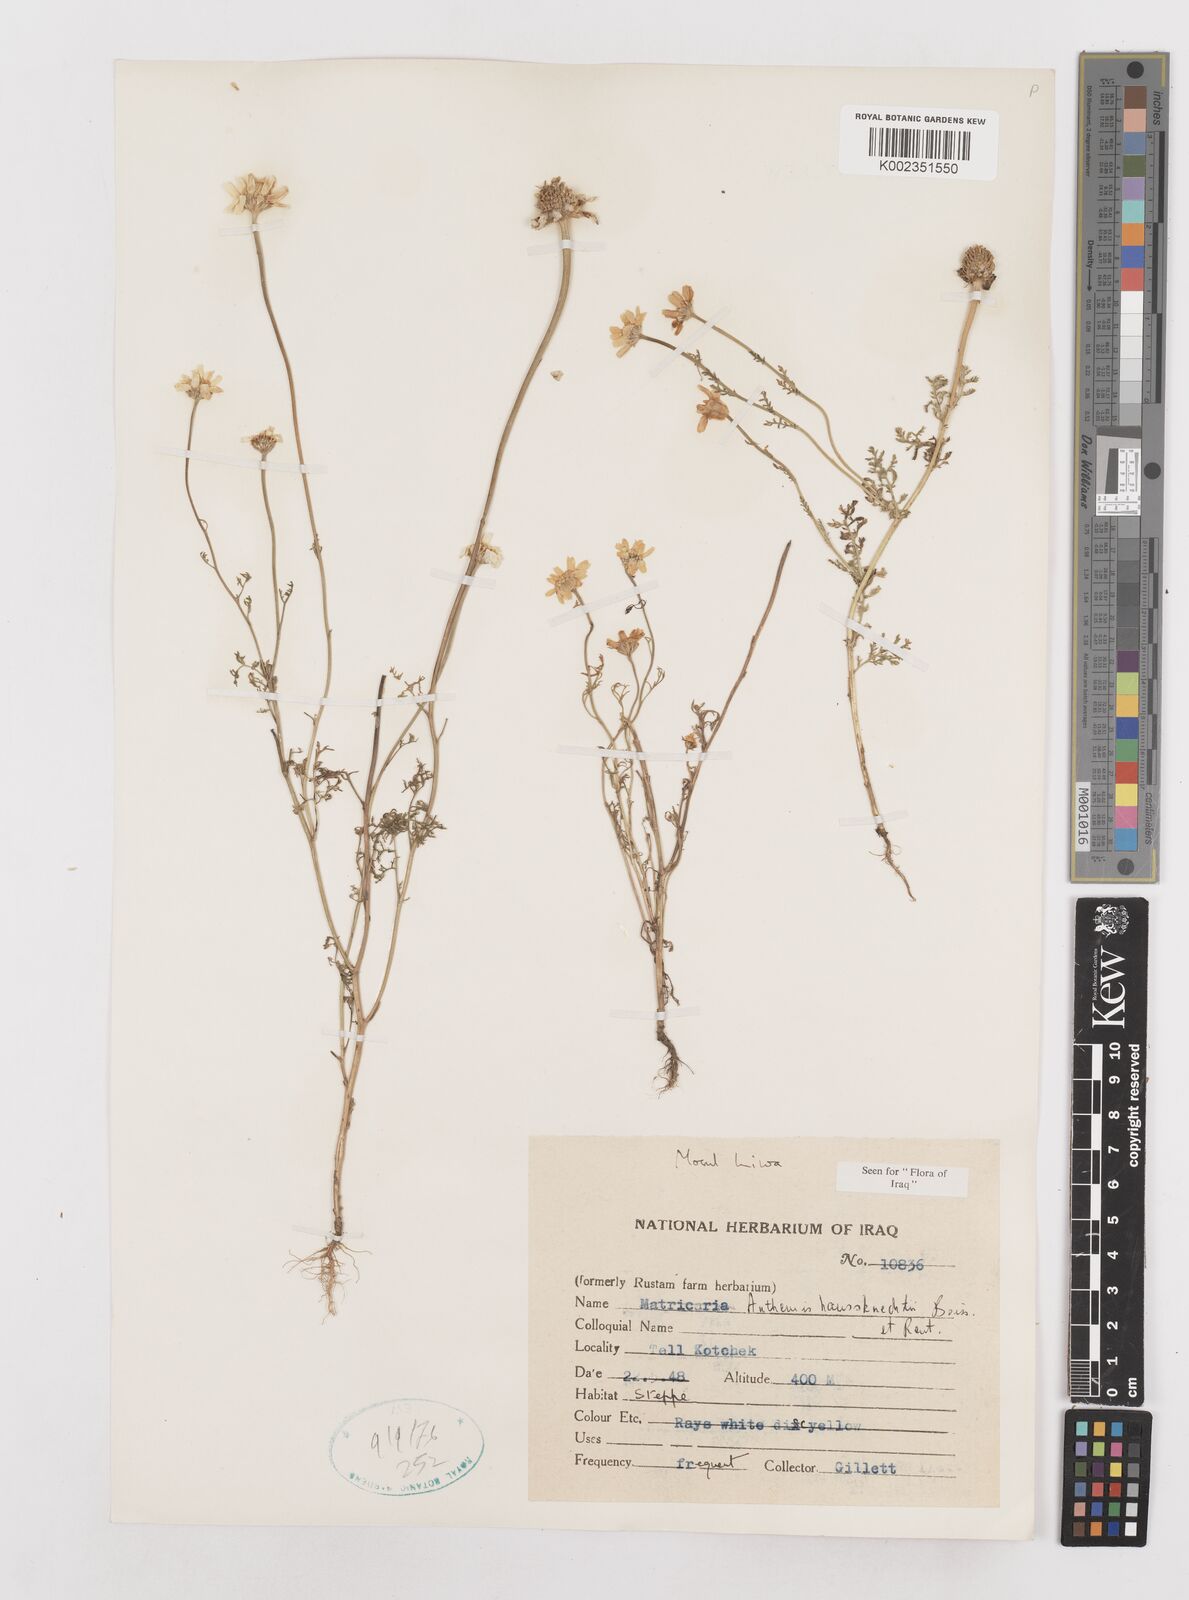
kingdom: Plantae
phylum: Tracheophyta
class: Magnoliopsida
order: Asterales
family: Asteraceae
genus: Anthemis
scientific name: Anthemis haussknechtii
